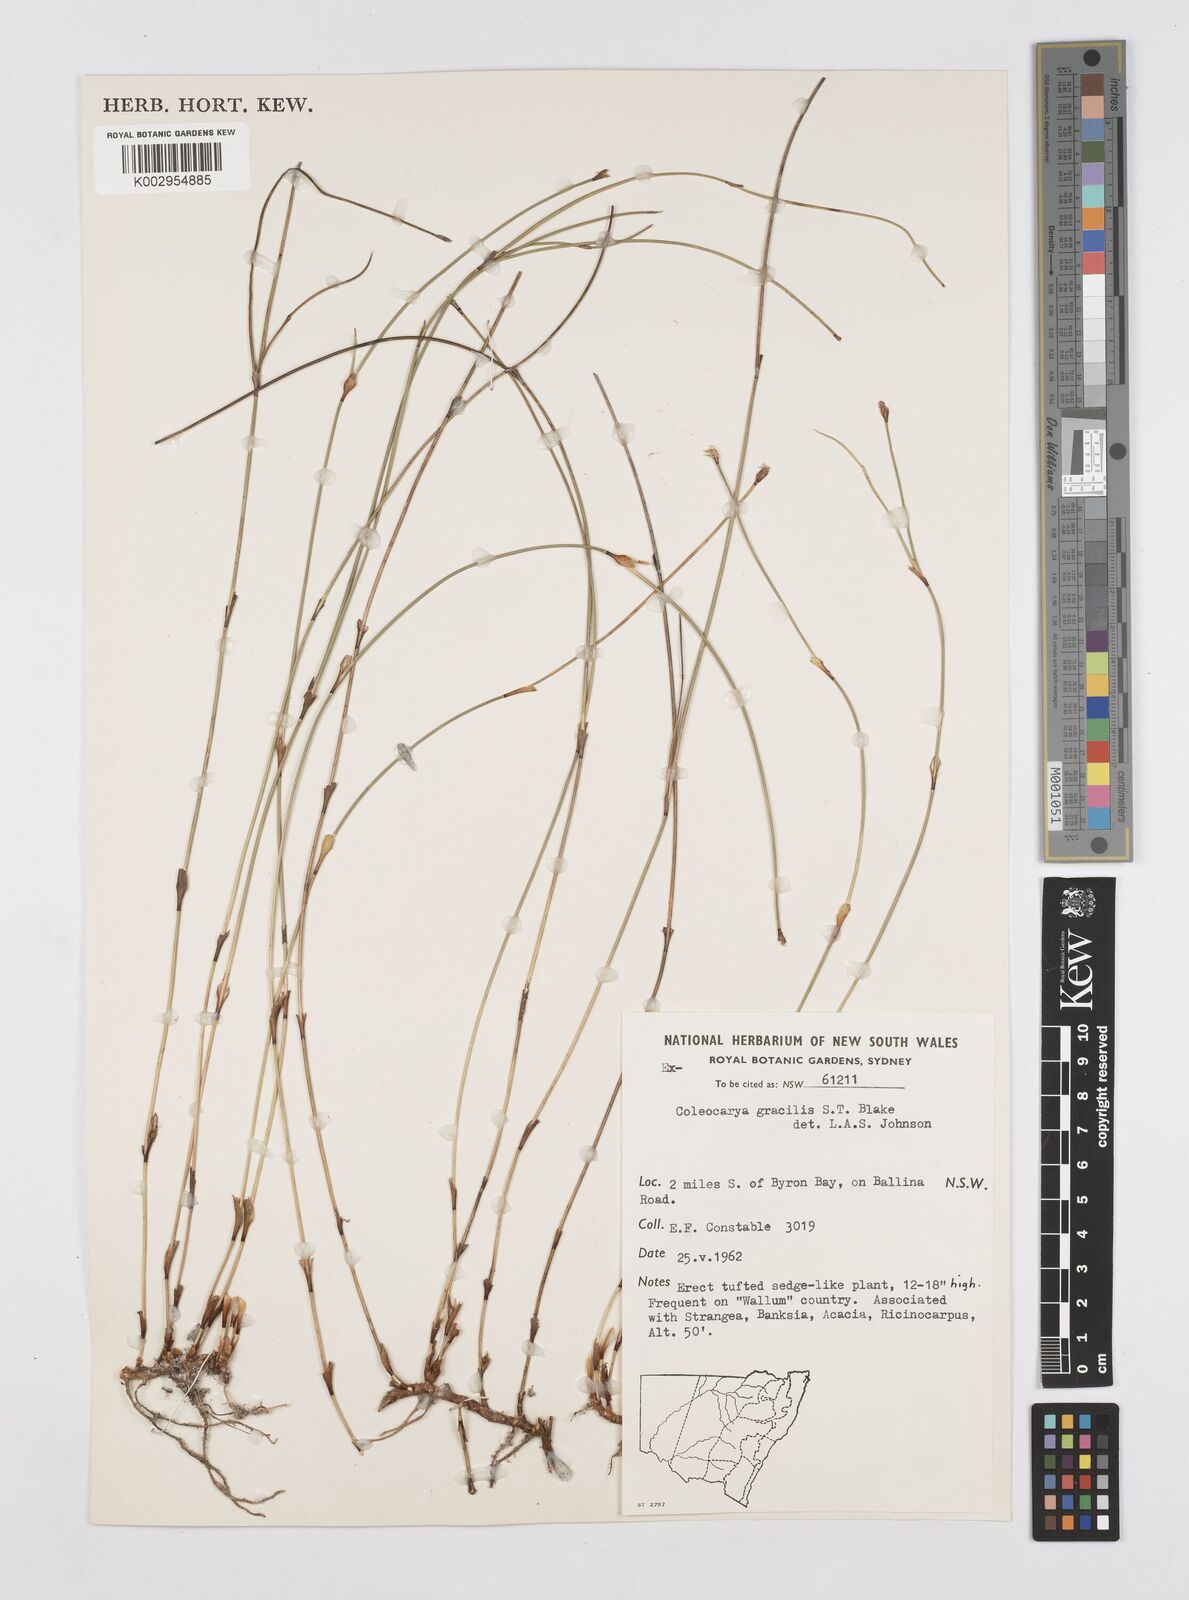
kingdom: Plantae
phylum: Tracheophyta
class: Liliopsida
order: Poales
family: Restionaceae
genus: Coleocarya
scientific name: Coleocarya gracilis
